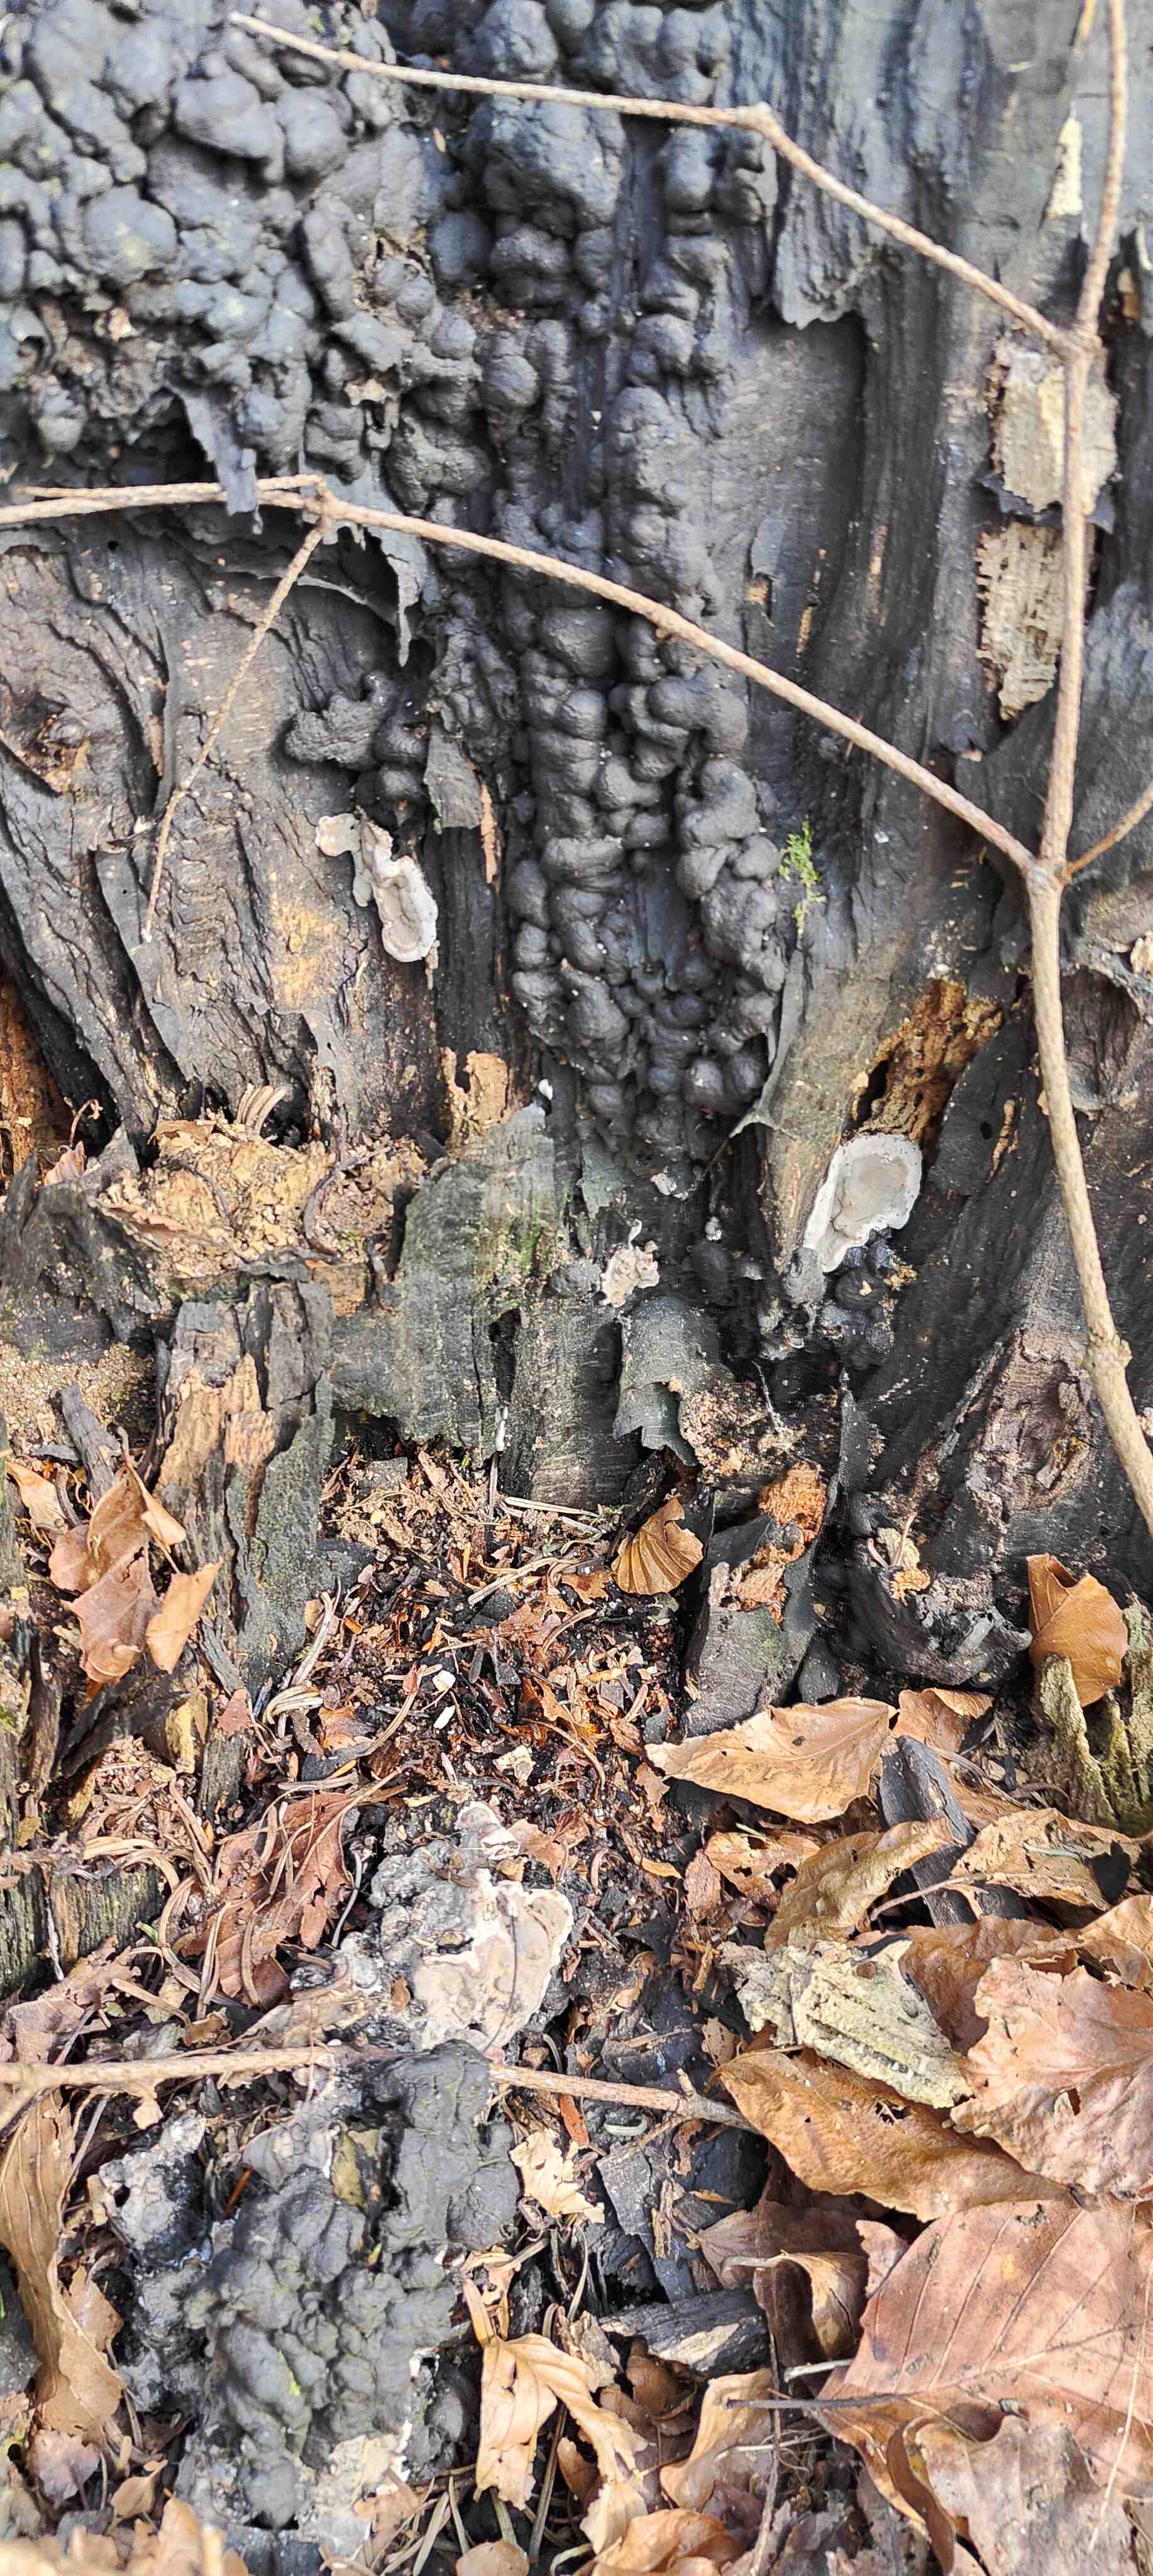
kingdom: Fungi
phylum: Ascomycota
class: Sordariomycetes
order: Xylariales
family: Xylariaceae
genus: Kretzschmaria
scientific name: Kretzschmaria deusta
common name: stor kulsvamp
